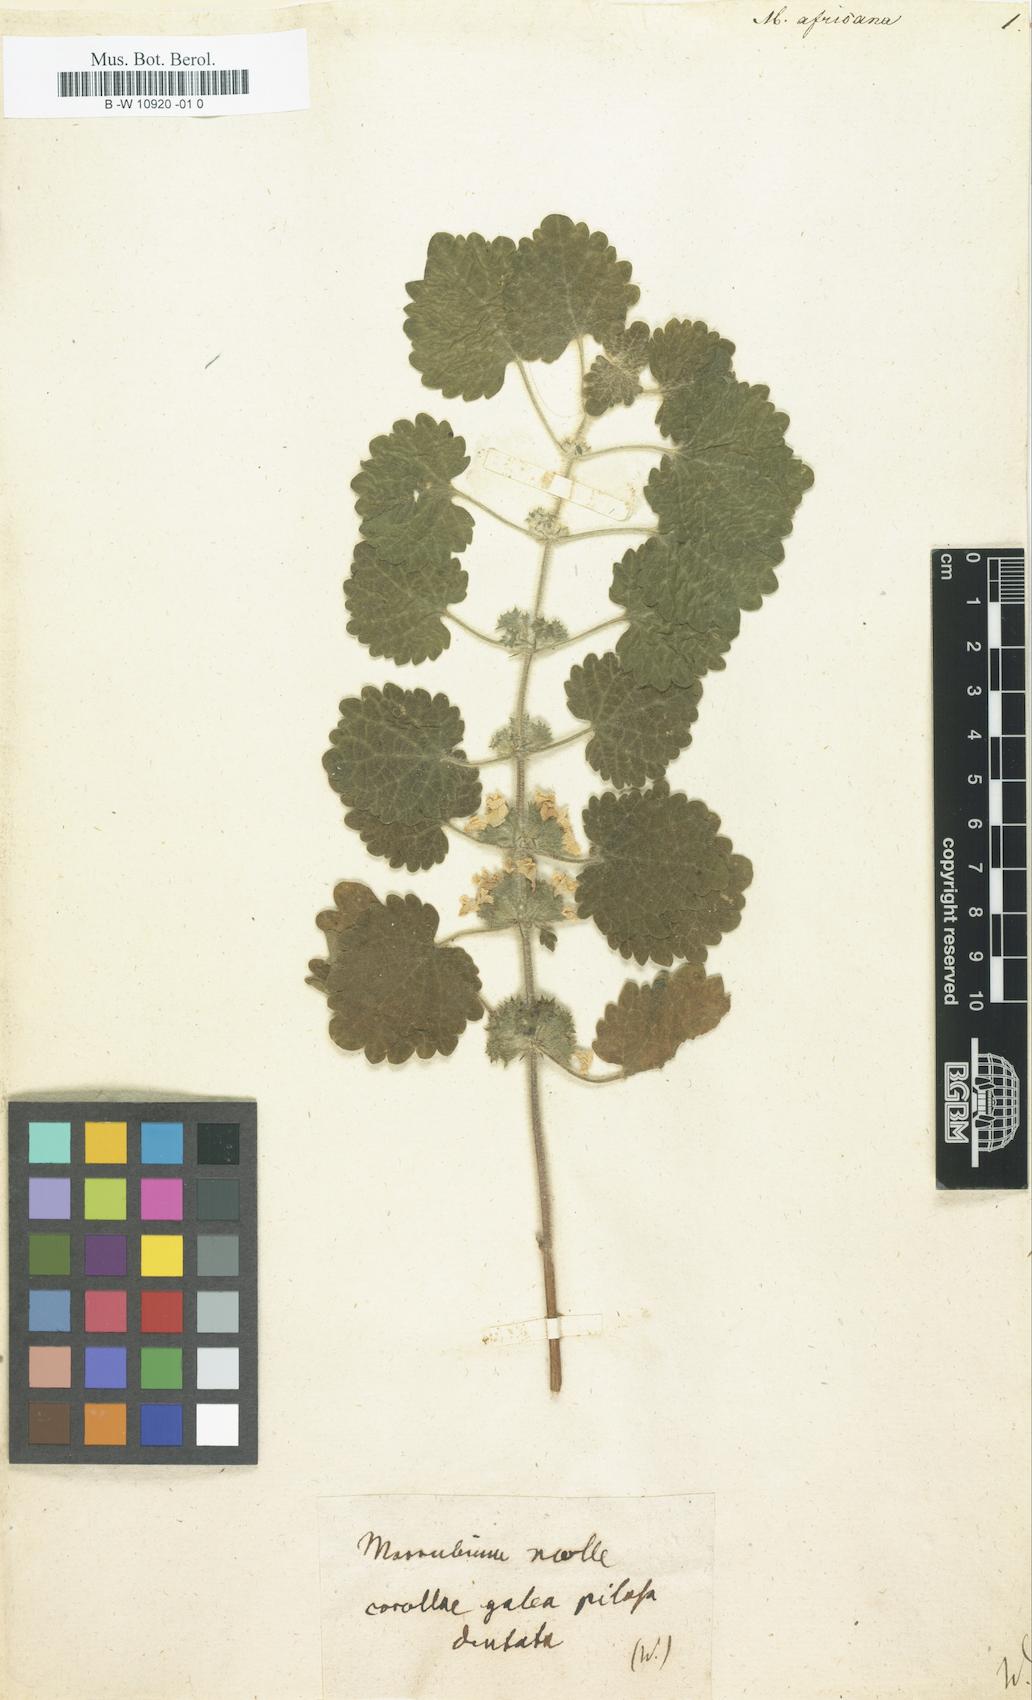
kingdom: Plantae
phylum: Tracheophyta
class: Magnoliopsida
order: Lamiales
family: Lamiaceae
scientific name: Lamiaceae
